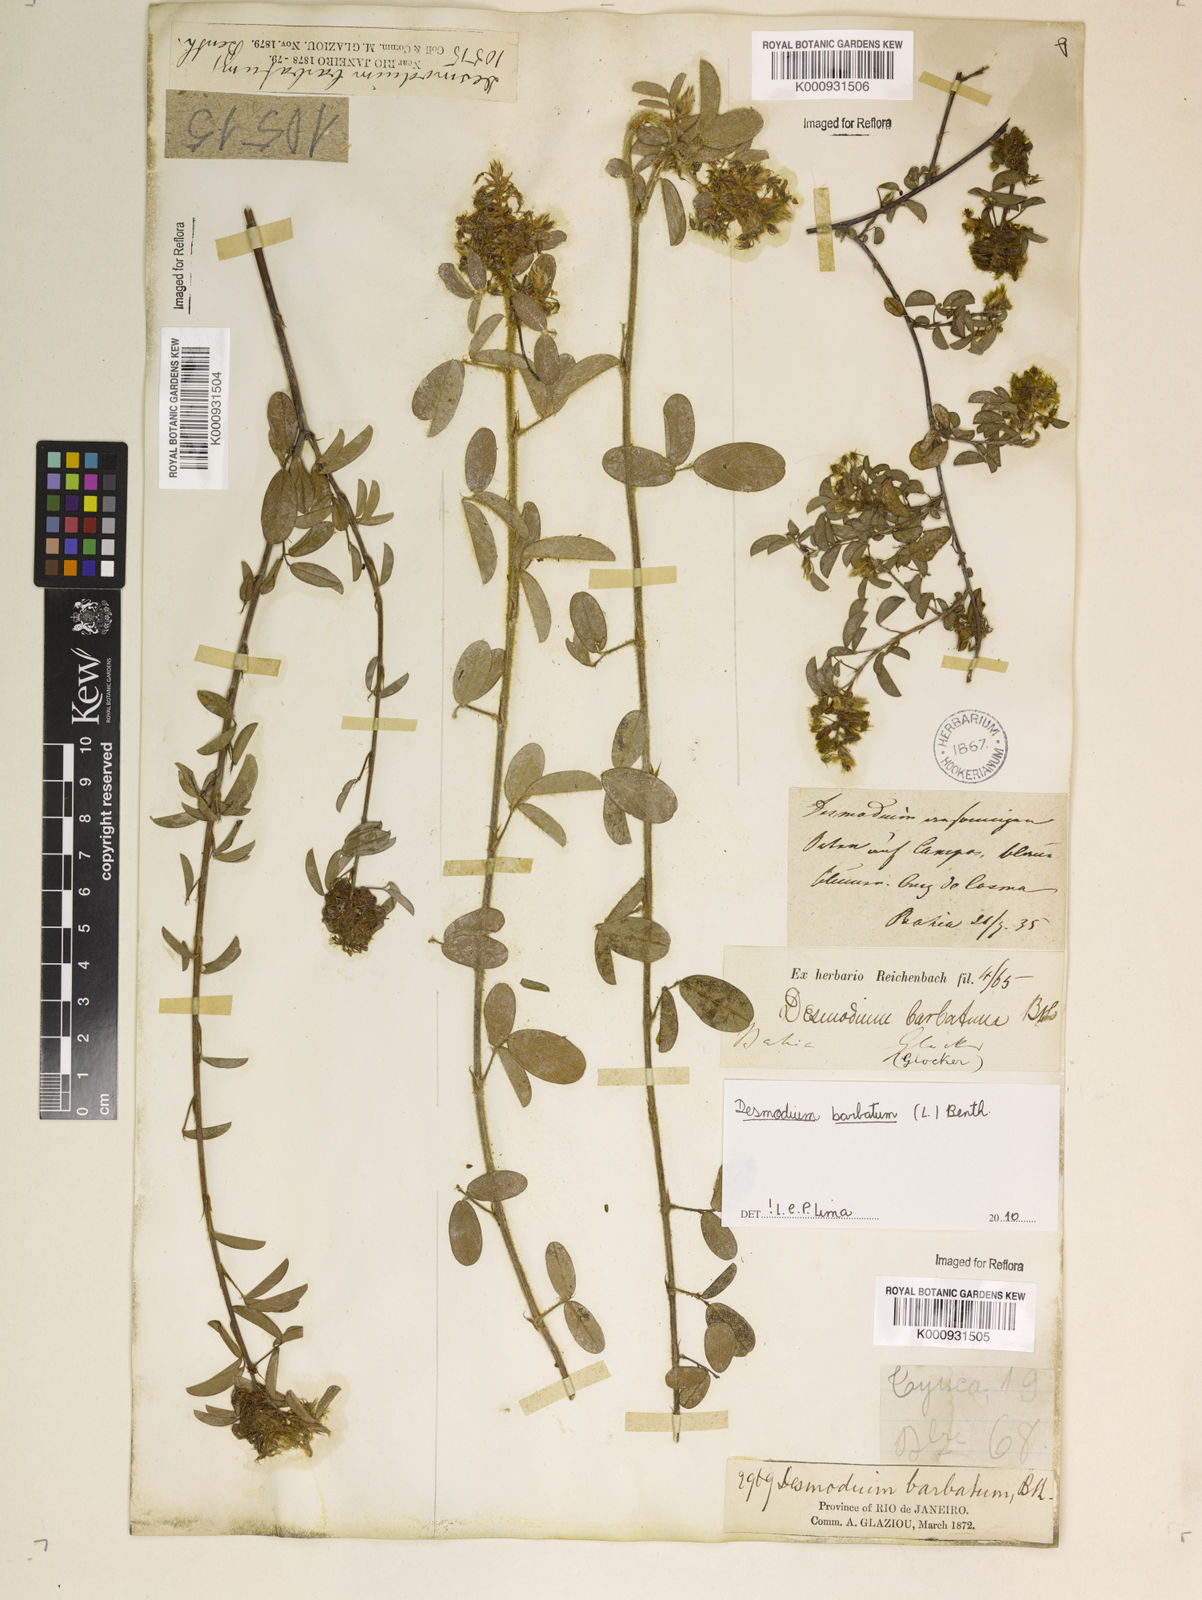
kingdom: Plantae
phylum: Tracheophyta
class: Magnoliopsida
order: Fabales
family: Fabaceae
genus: Grona
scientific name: Grona barbata
